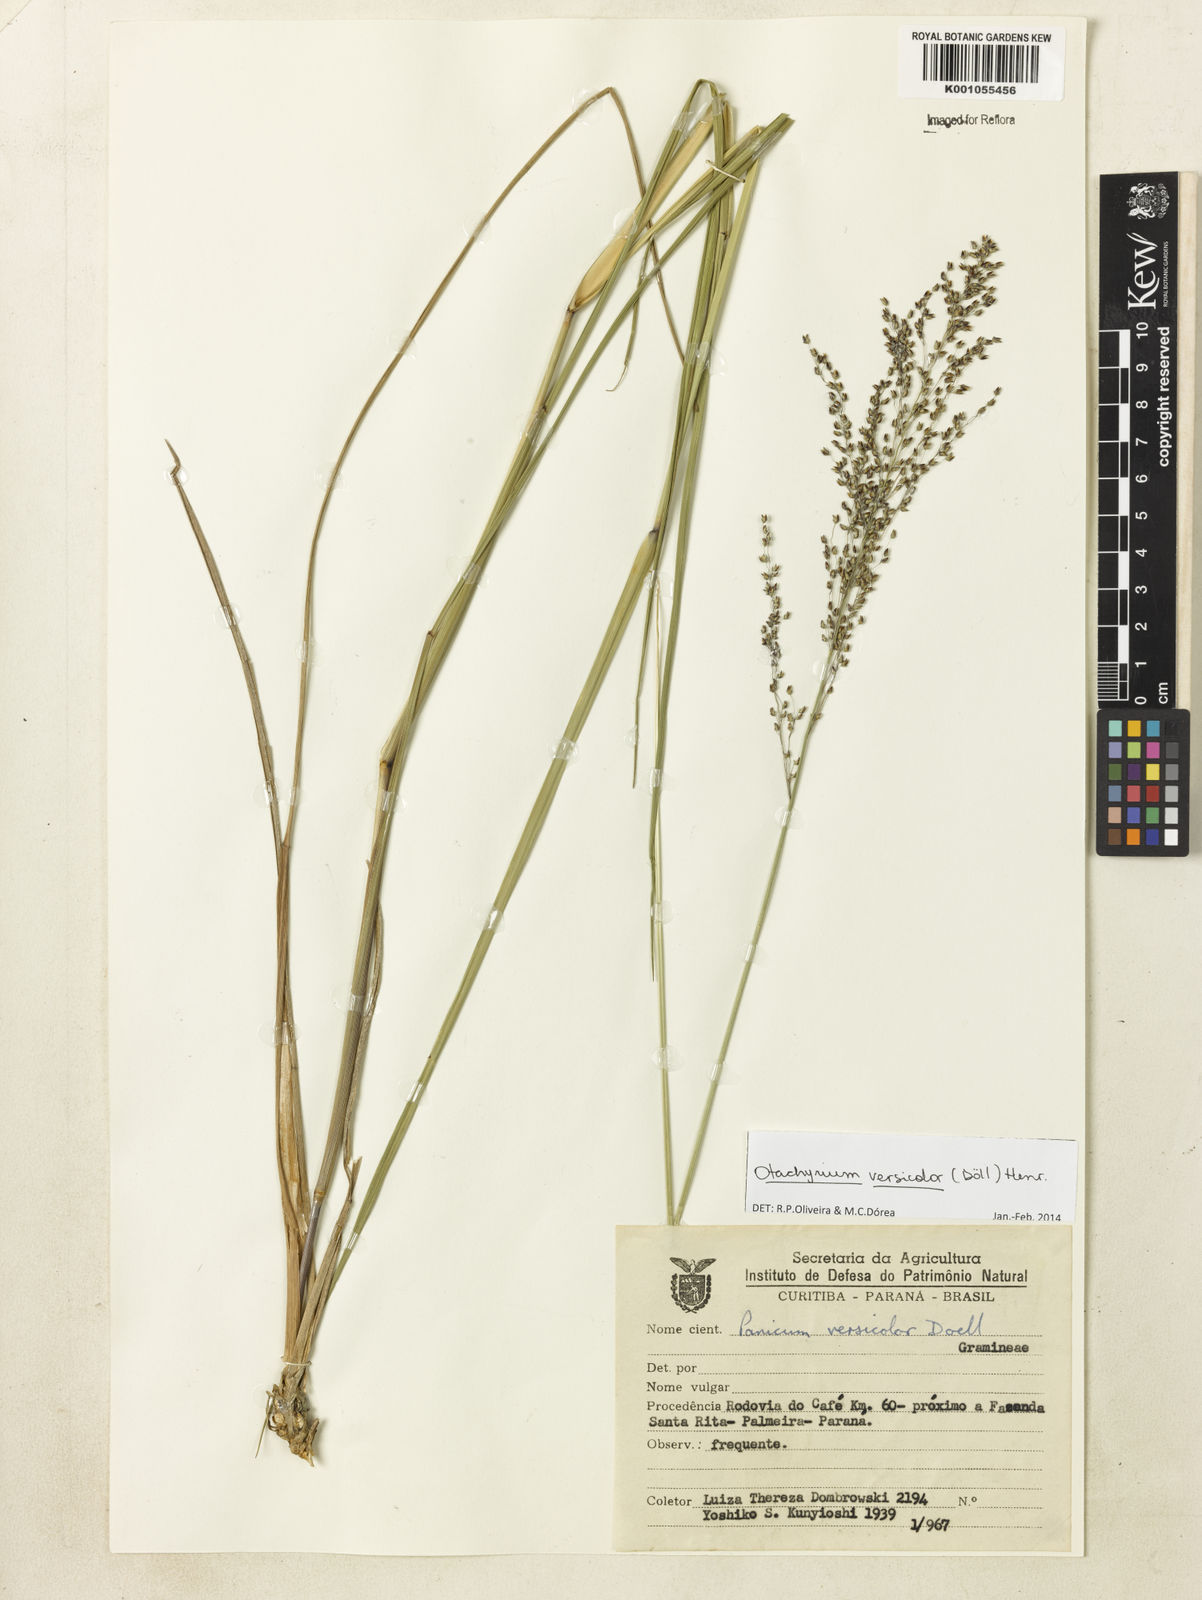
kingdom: Plantae
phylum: Tracheophyta
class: Liliopsida
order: Poales
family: Poaceae
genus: Otachyrium
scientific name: Otachyrium
